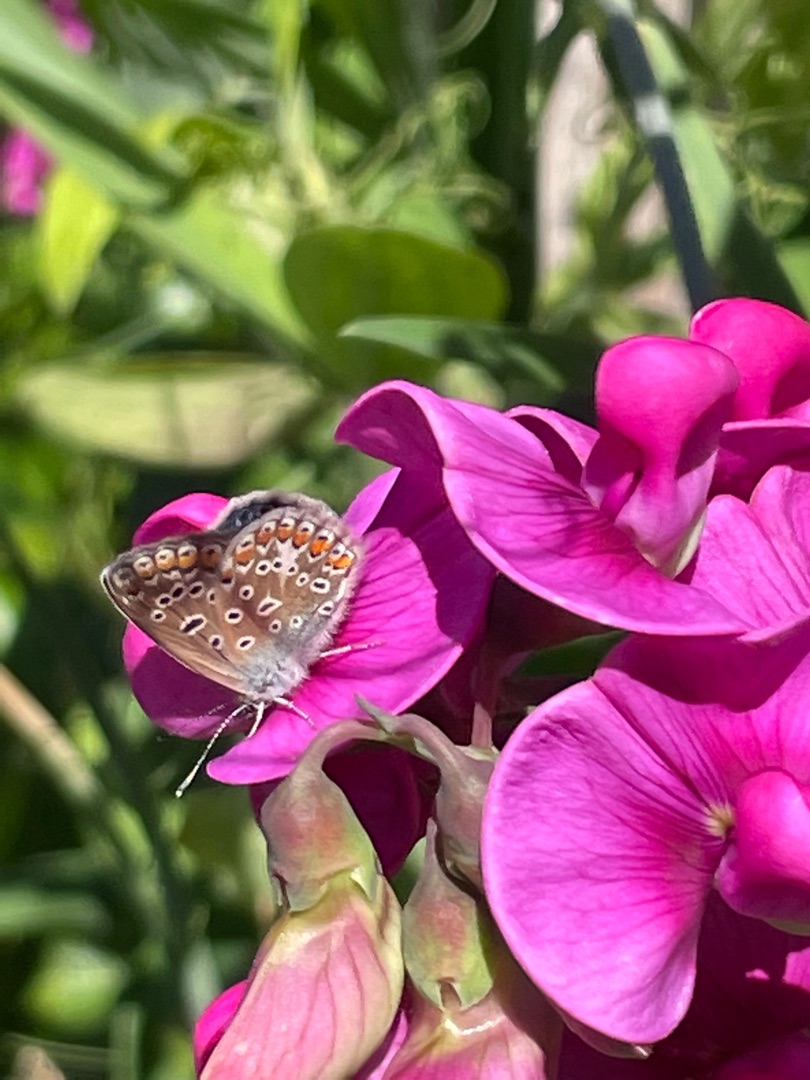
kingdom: Animalia
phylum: Arthropoda
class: Insecta
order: Lepidoptera
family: Lycaenidae
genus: Polyommatus
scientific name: Polyommatus icarus
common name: Almindelig blåfugl
